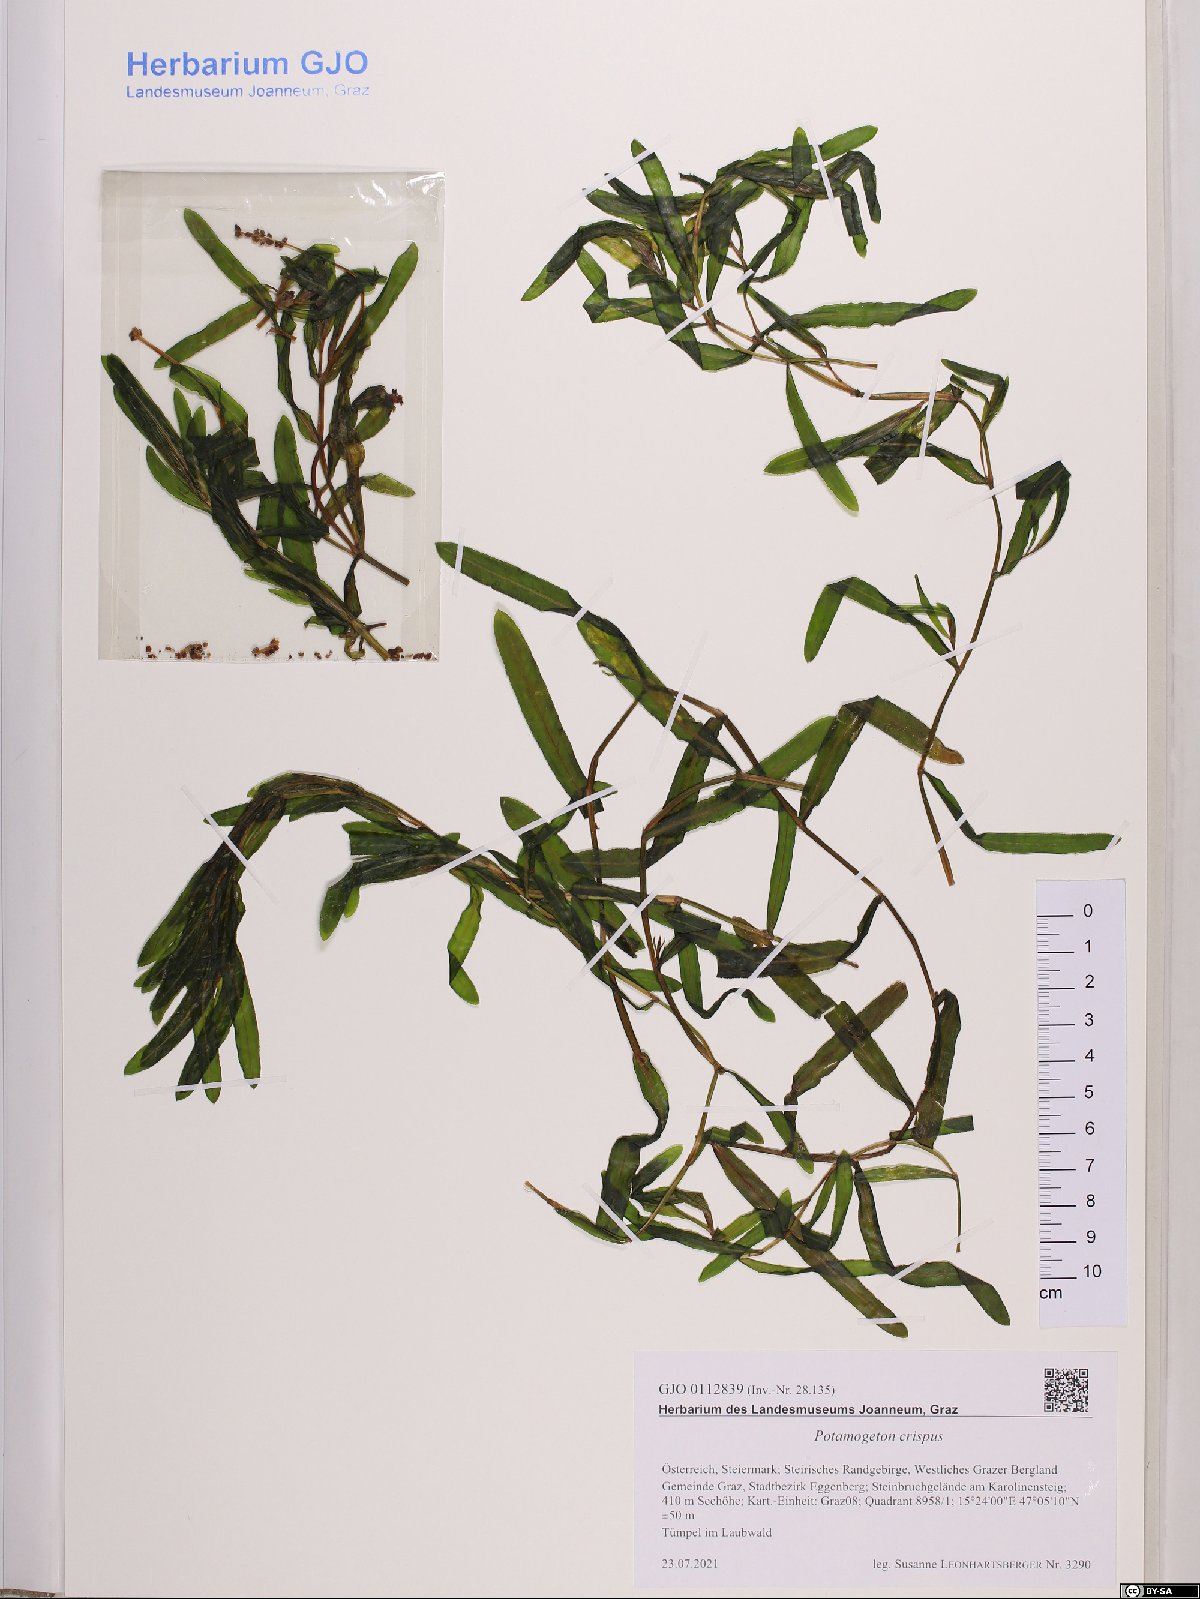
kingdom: Plantae
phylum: Tracheophyta
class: Liliopsida
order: Alismatales
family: Potamogetonaceae
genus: Potamogeton
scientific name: Potamogeton crispus
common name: Curled pondweed
